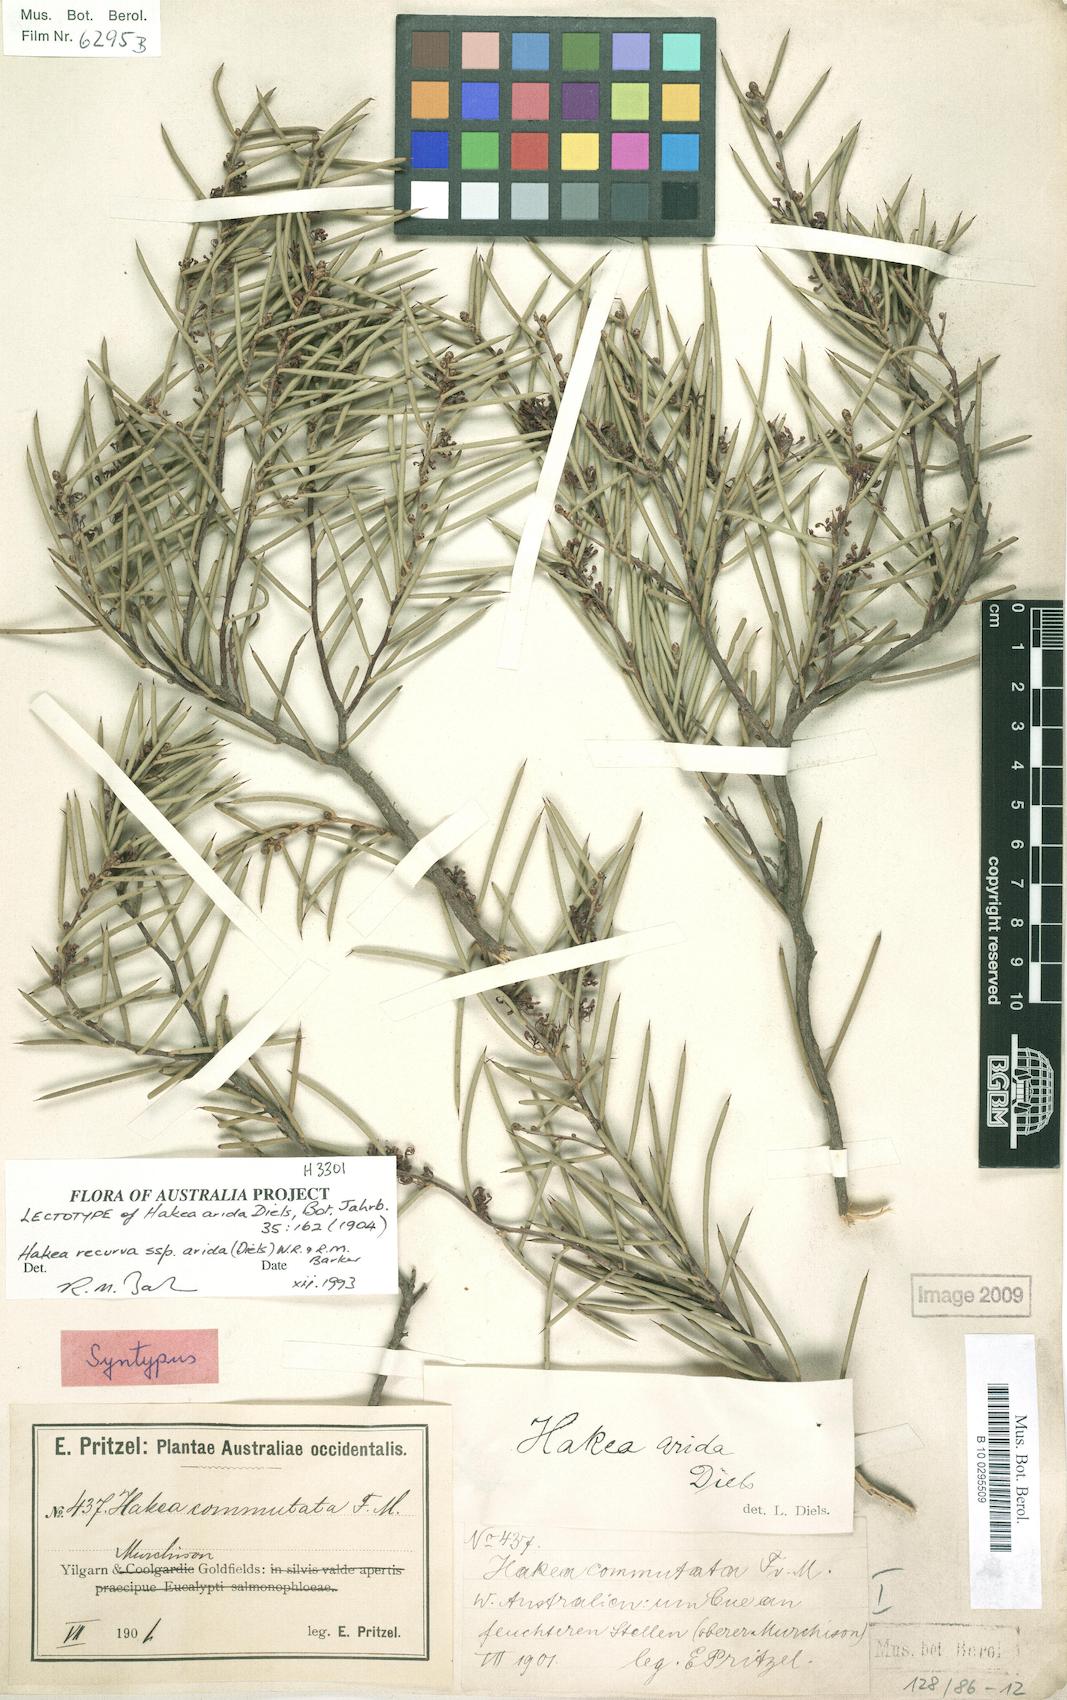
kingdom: Plantae
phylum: Tracheophyta
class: Magnoliopsida
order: Proteales
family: Proteaceae
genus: Hakea
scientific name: Hakea recurva
